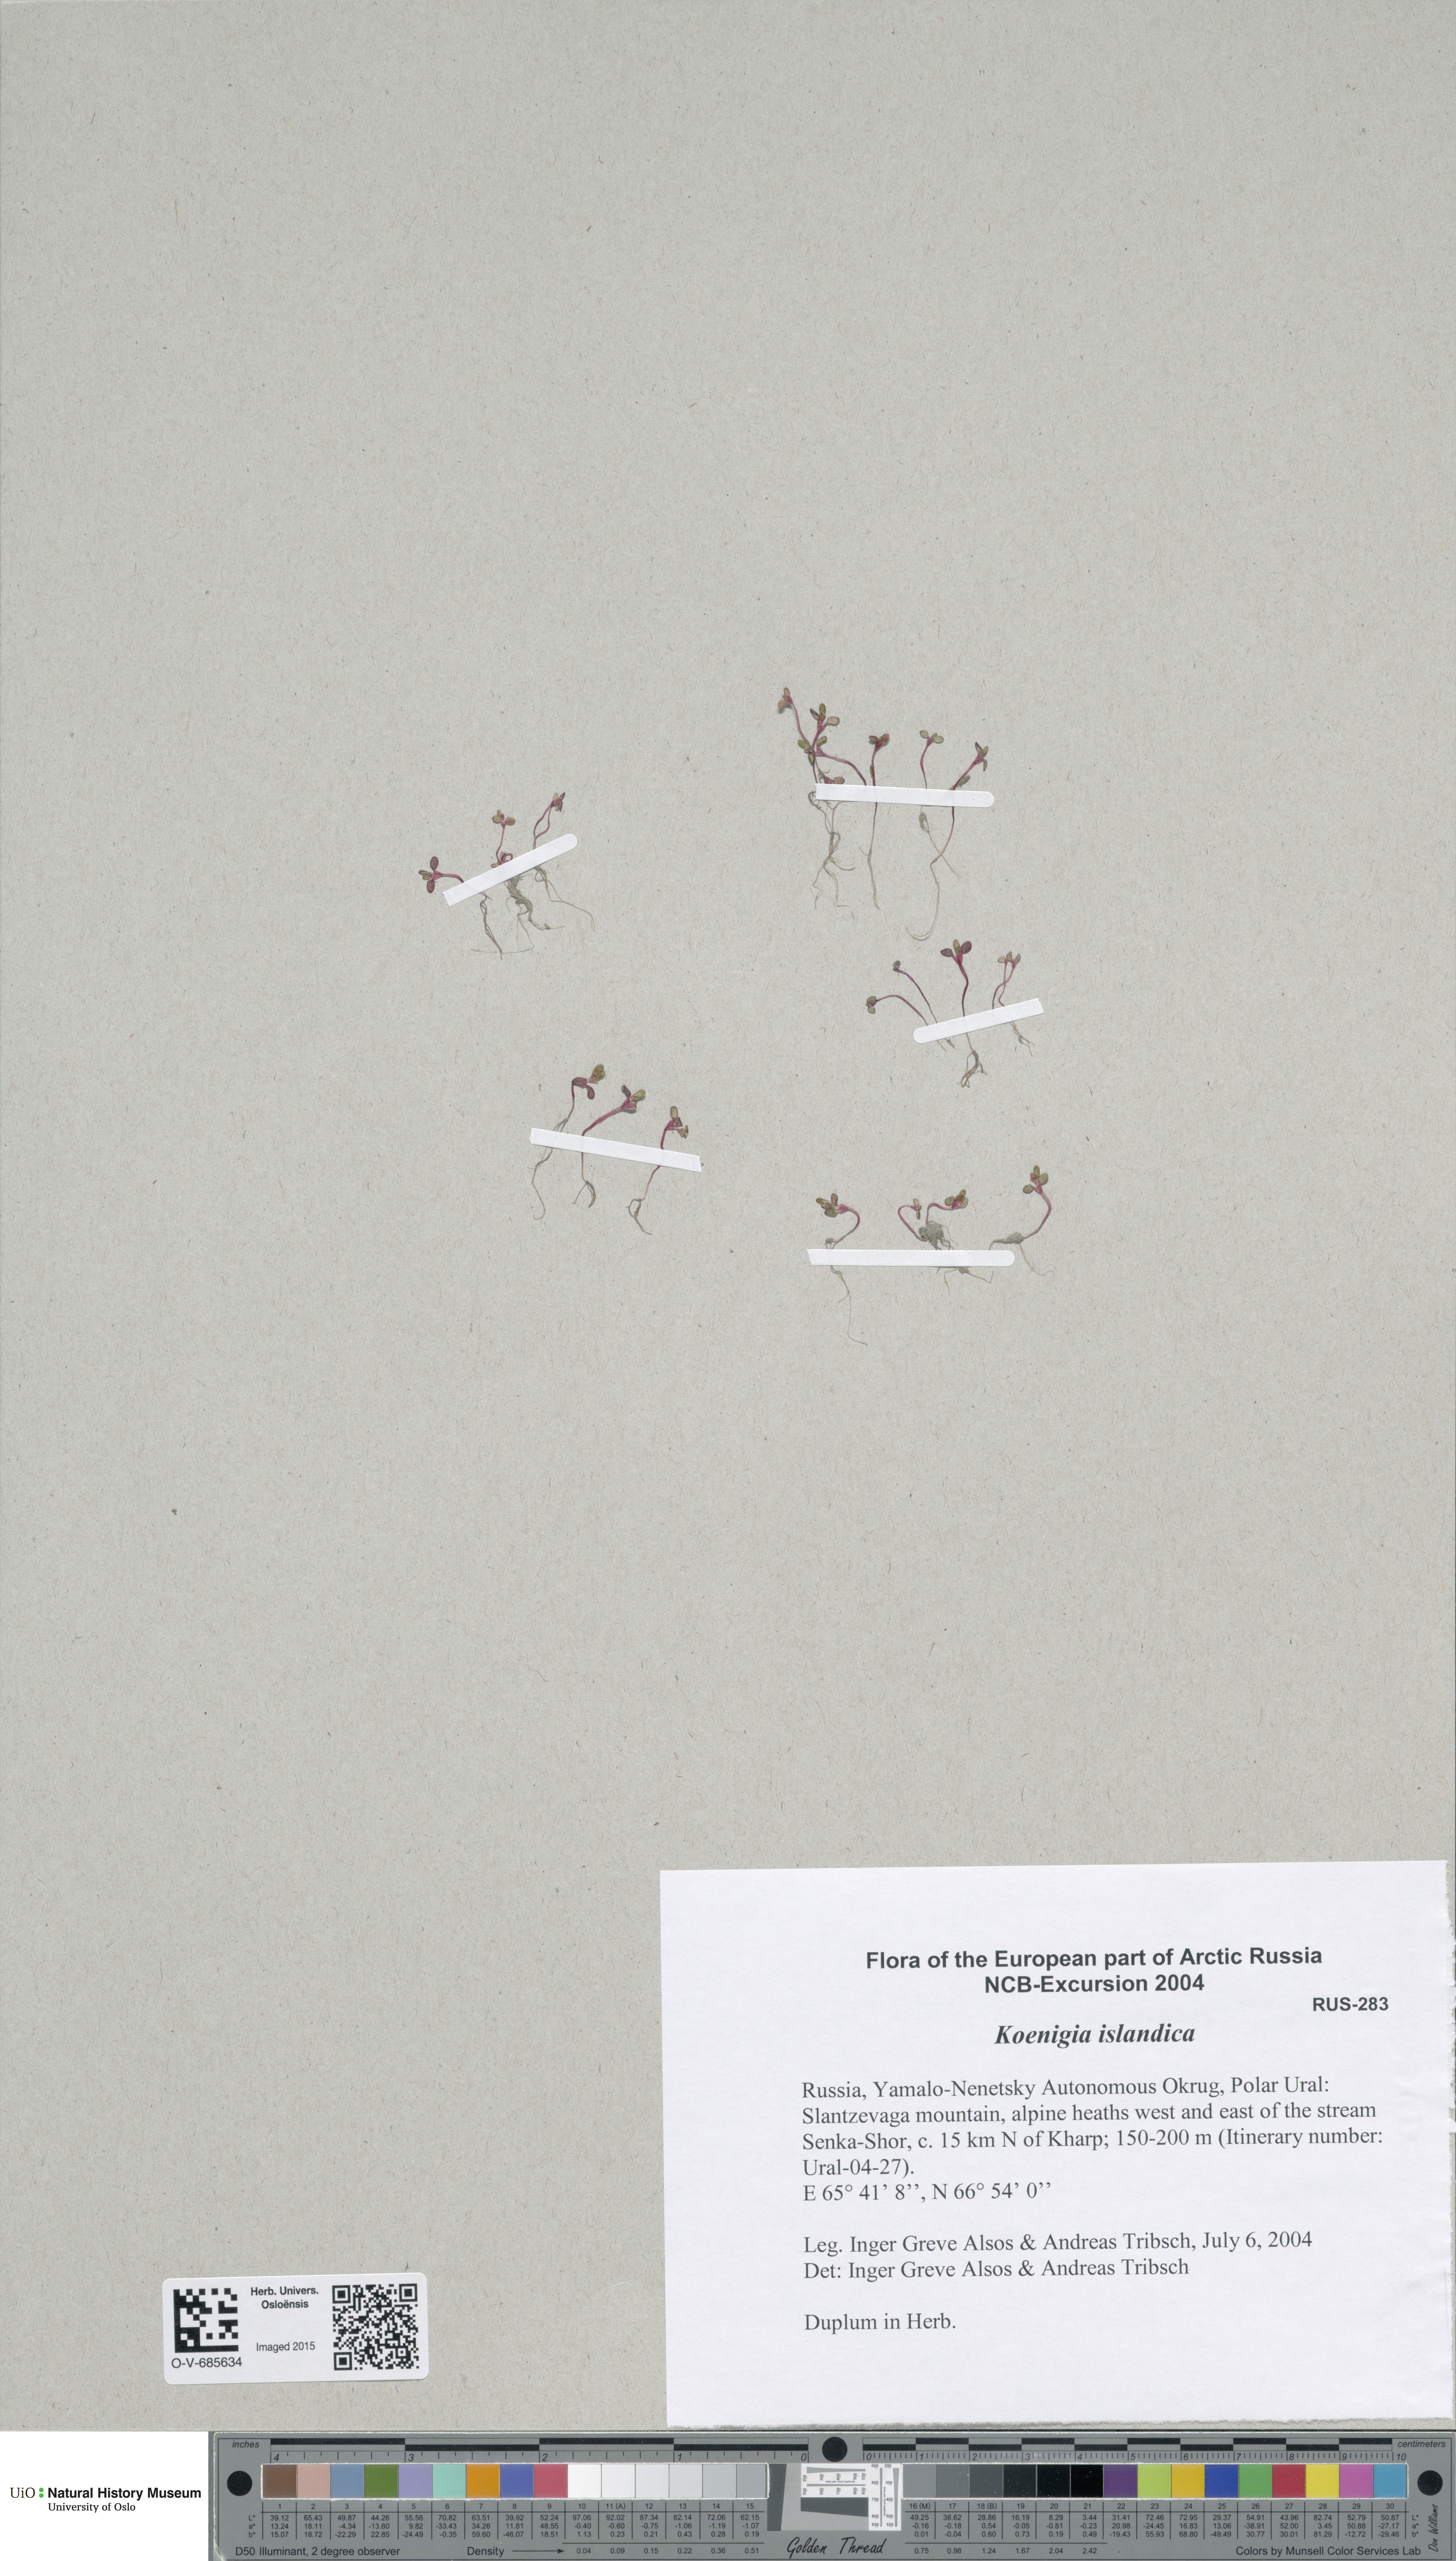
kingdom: Plantae
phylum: Tracheophyta
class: Magnoliopsida
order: Caryophyllales
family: Polygonaceae
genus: Koenigia
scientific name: Koenigia islandica
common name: Iceland-purslane
